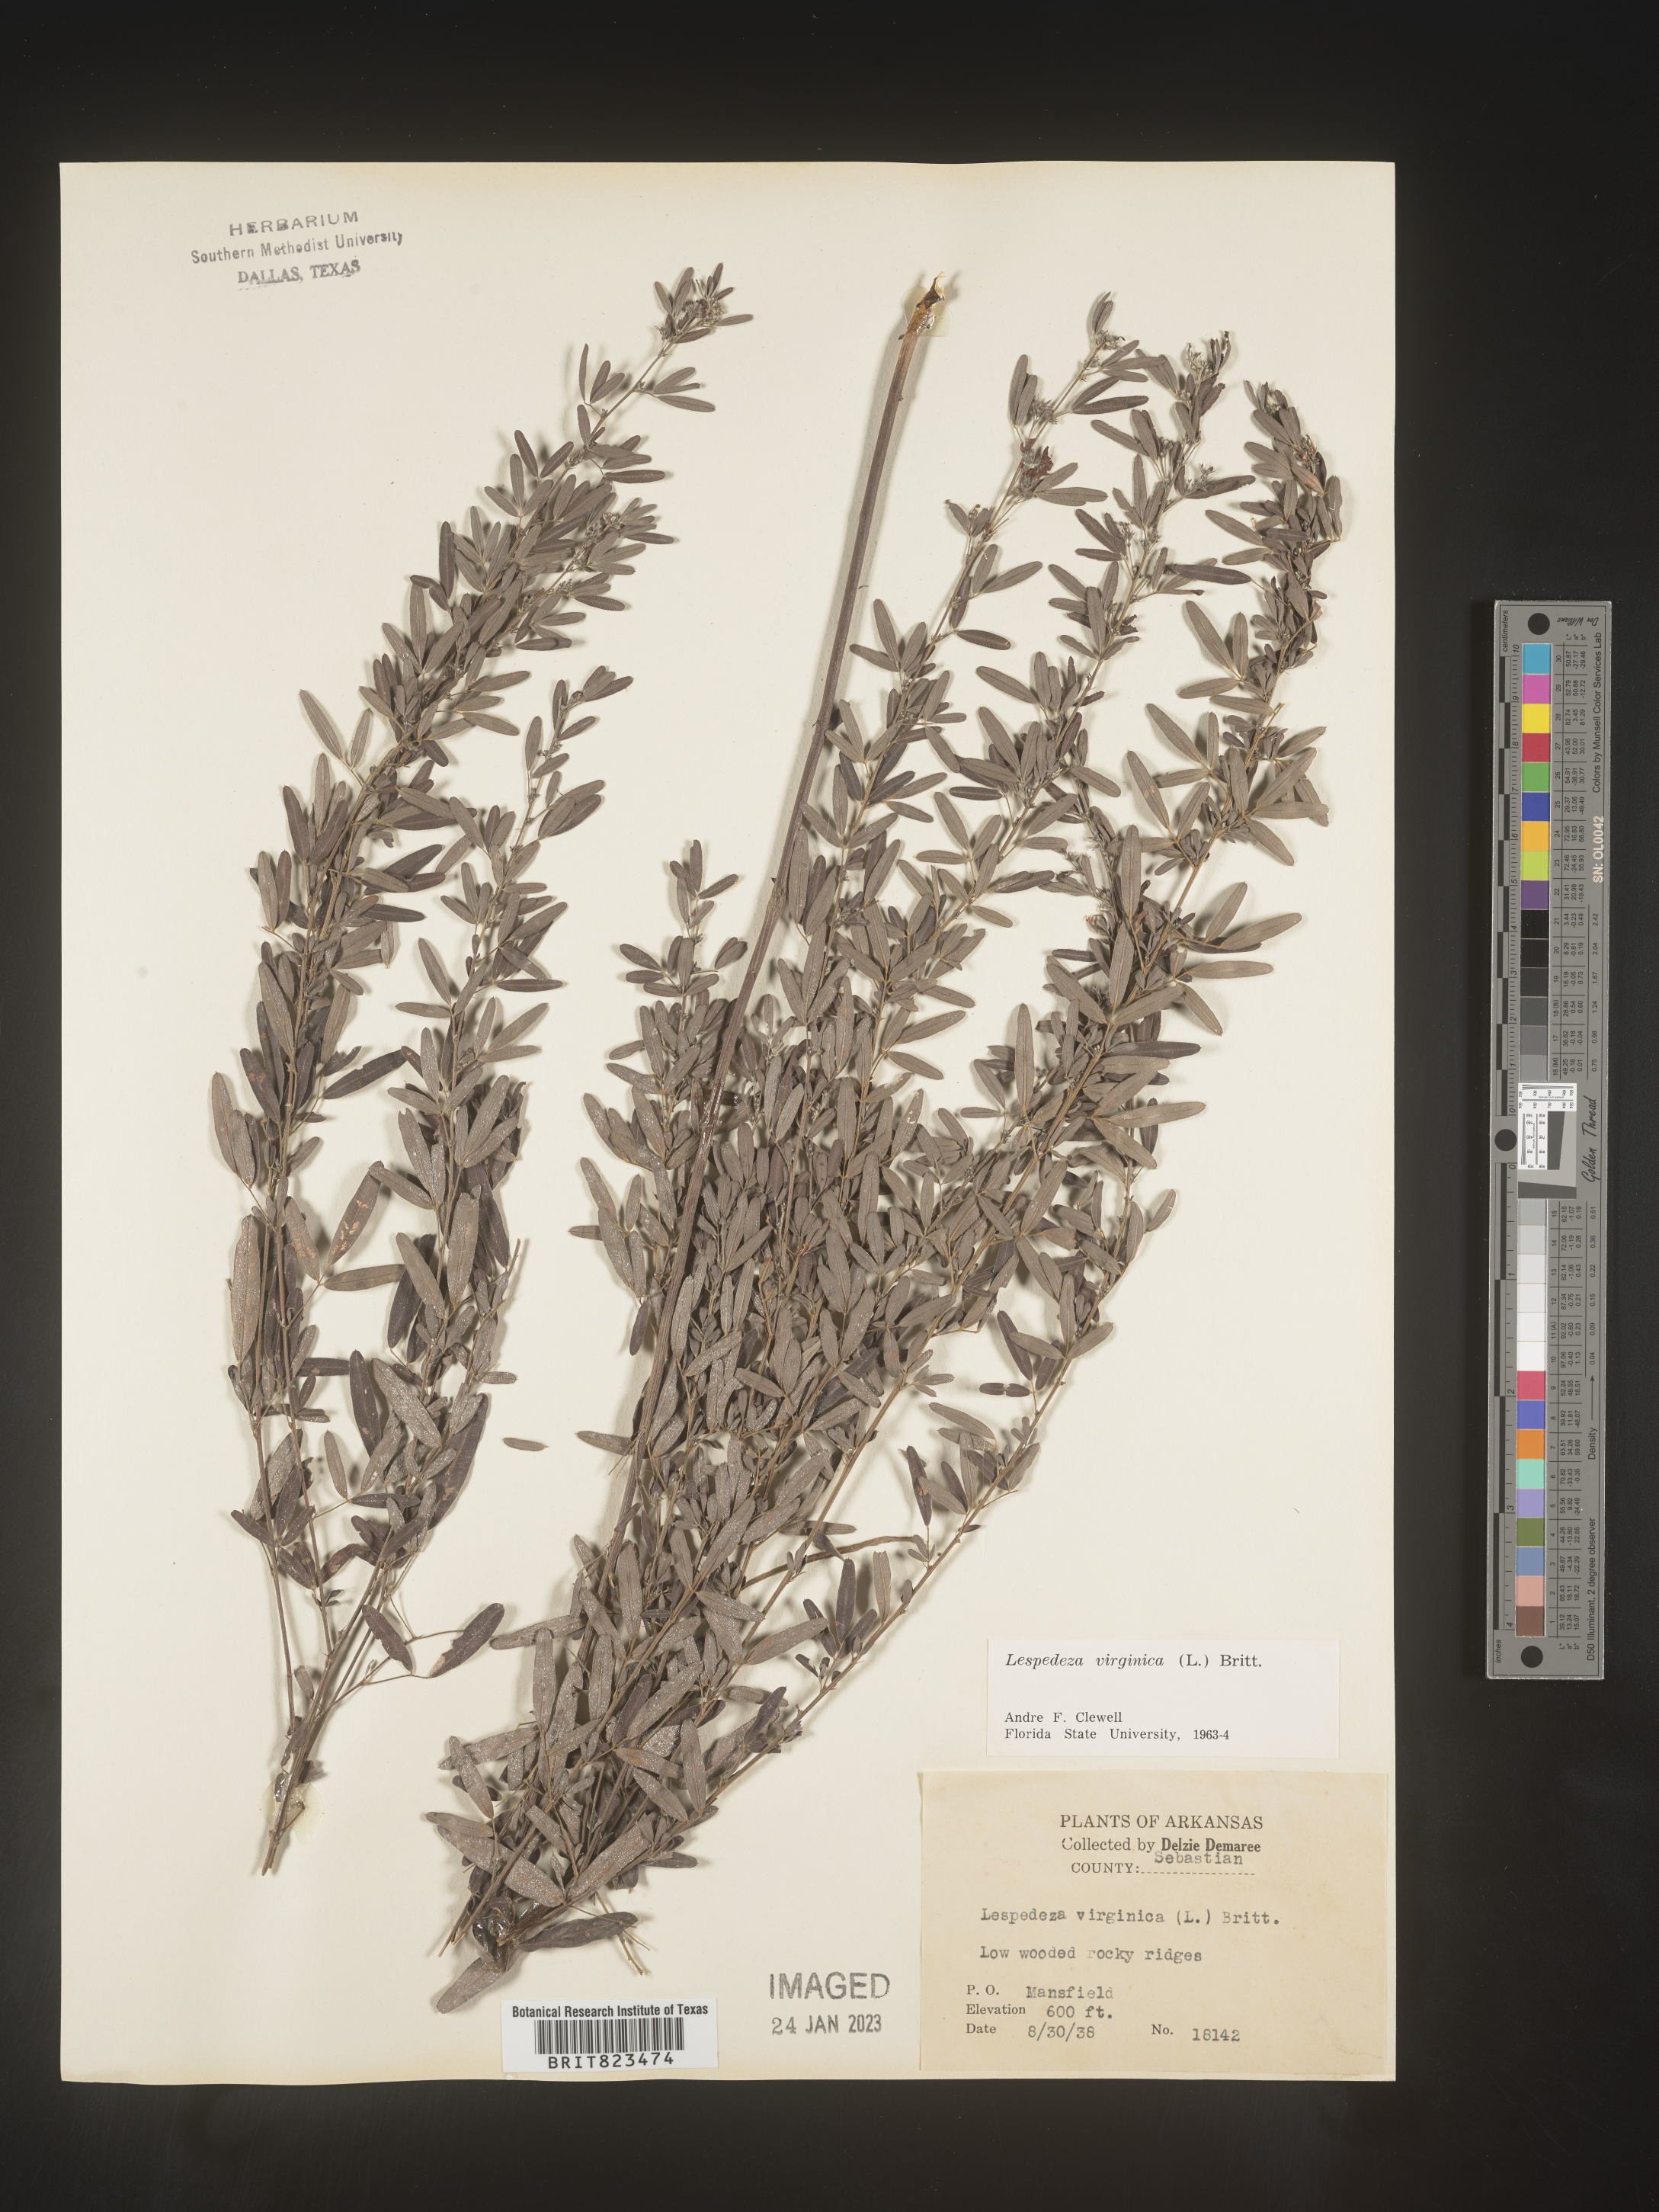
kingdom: Plantae
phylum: Tracheophyta
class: Magnoliopsida
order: Fabales
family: Fabaceae
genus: Lespedeza
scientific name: Lespedeza virginica
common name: Slender bush-clover
